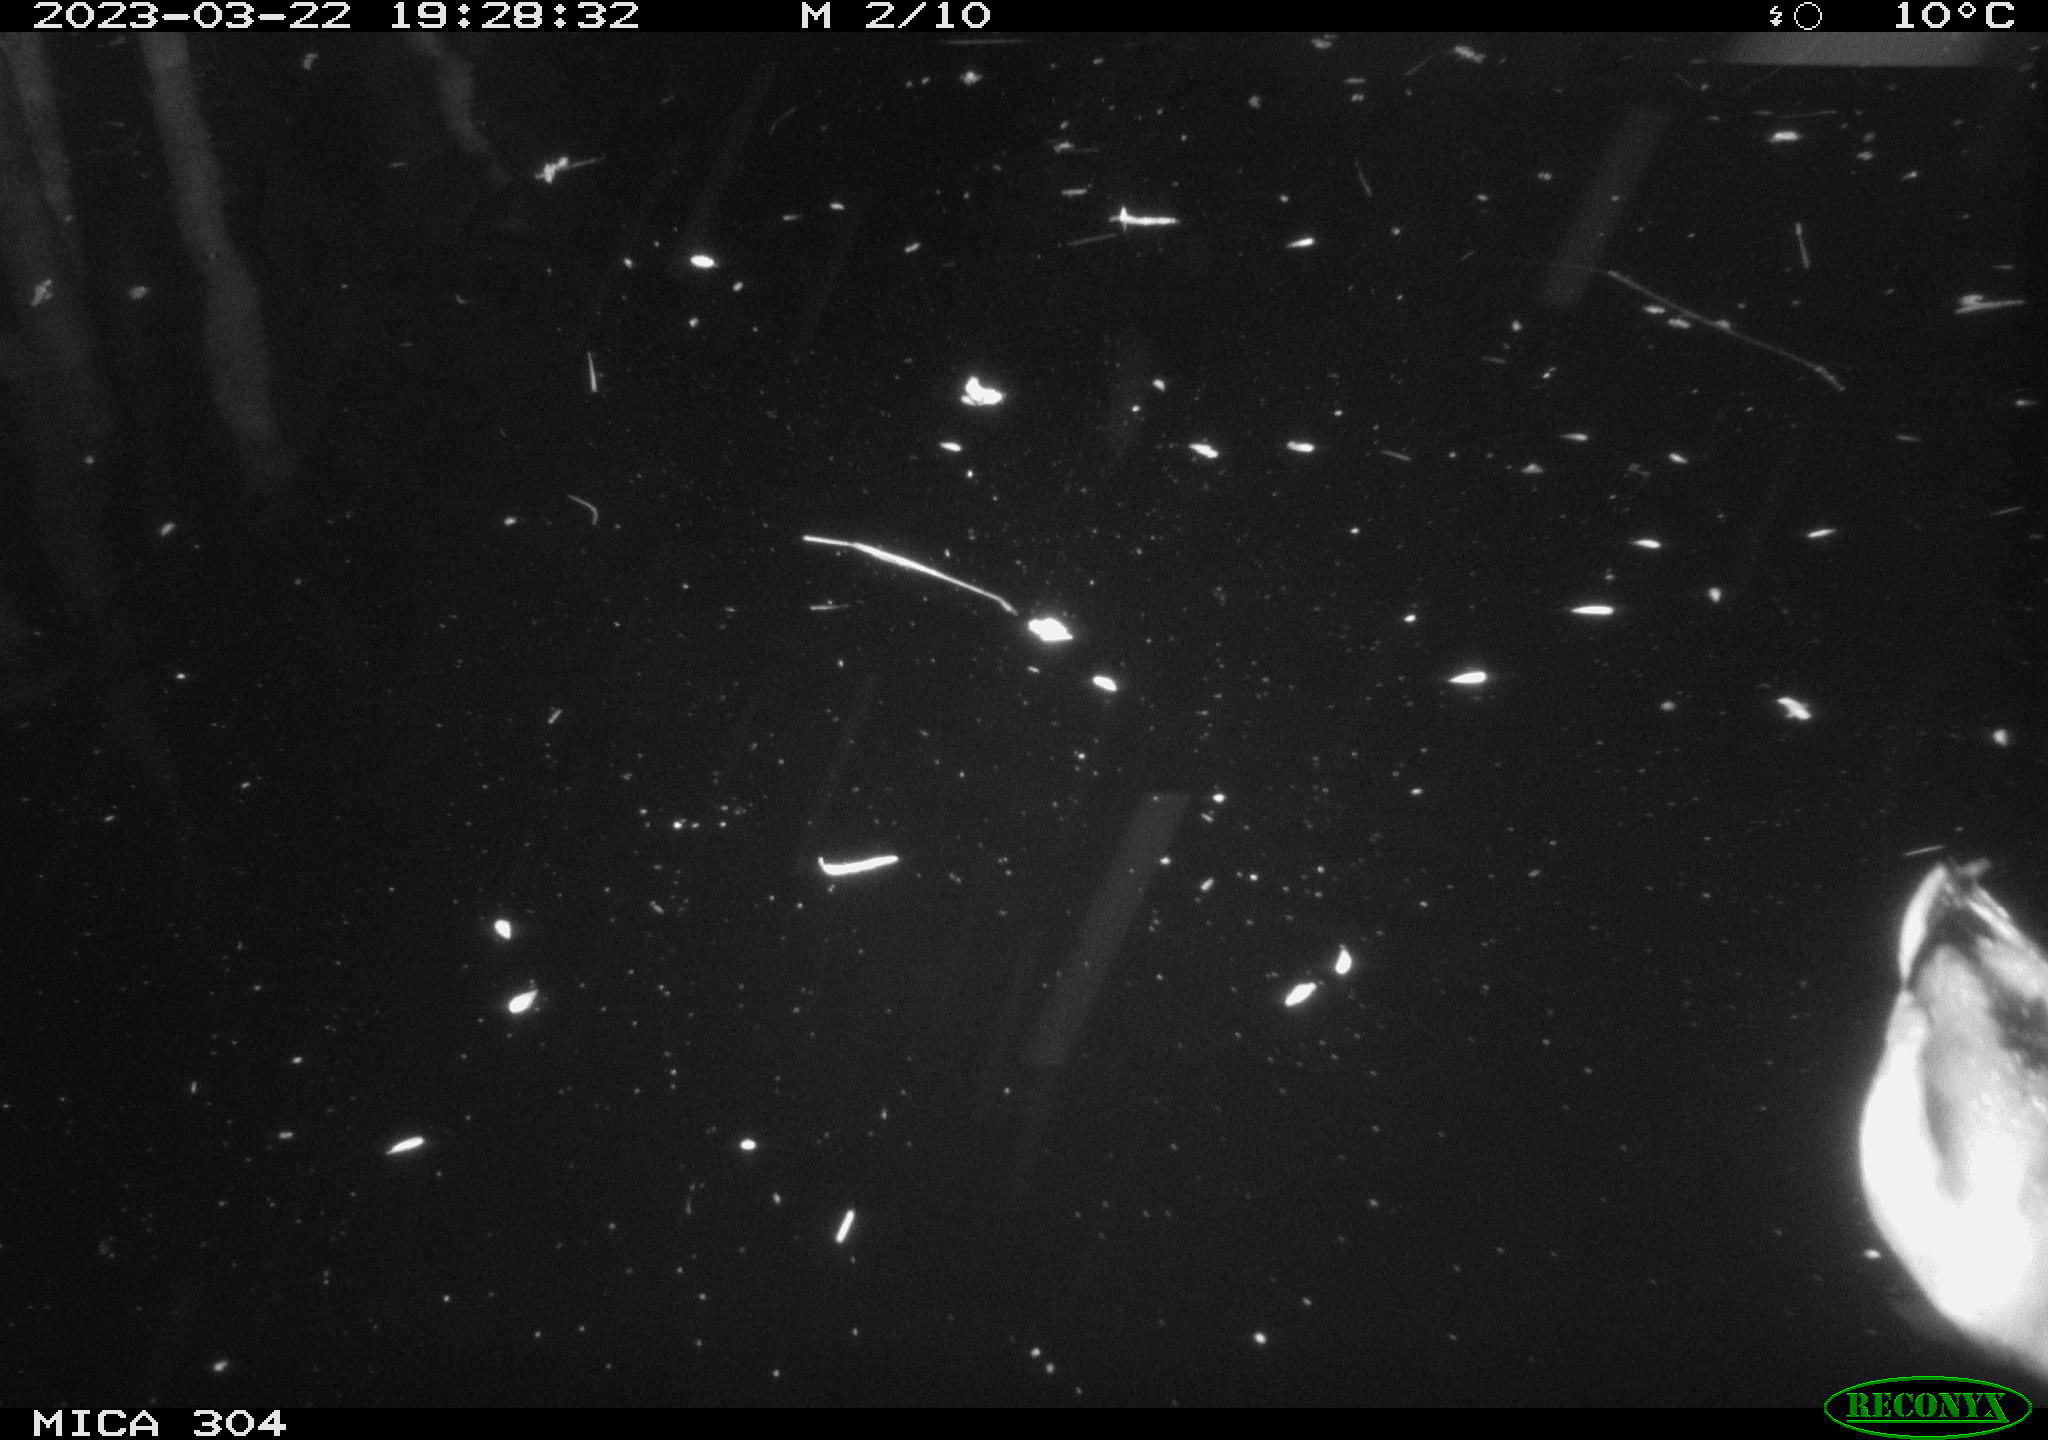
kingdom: Animalia
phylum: Chordata
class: Aves
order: Anseriformes
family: Anatidae
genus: Anas
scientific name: Anas
